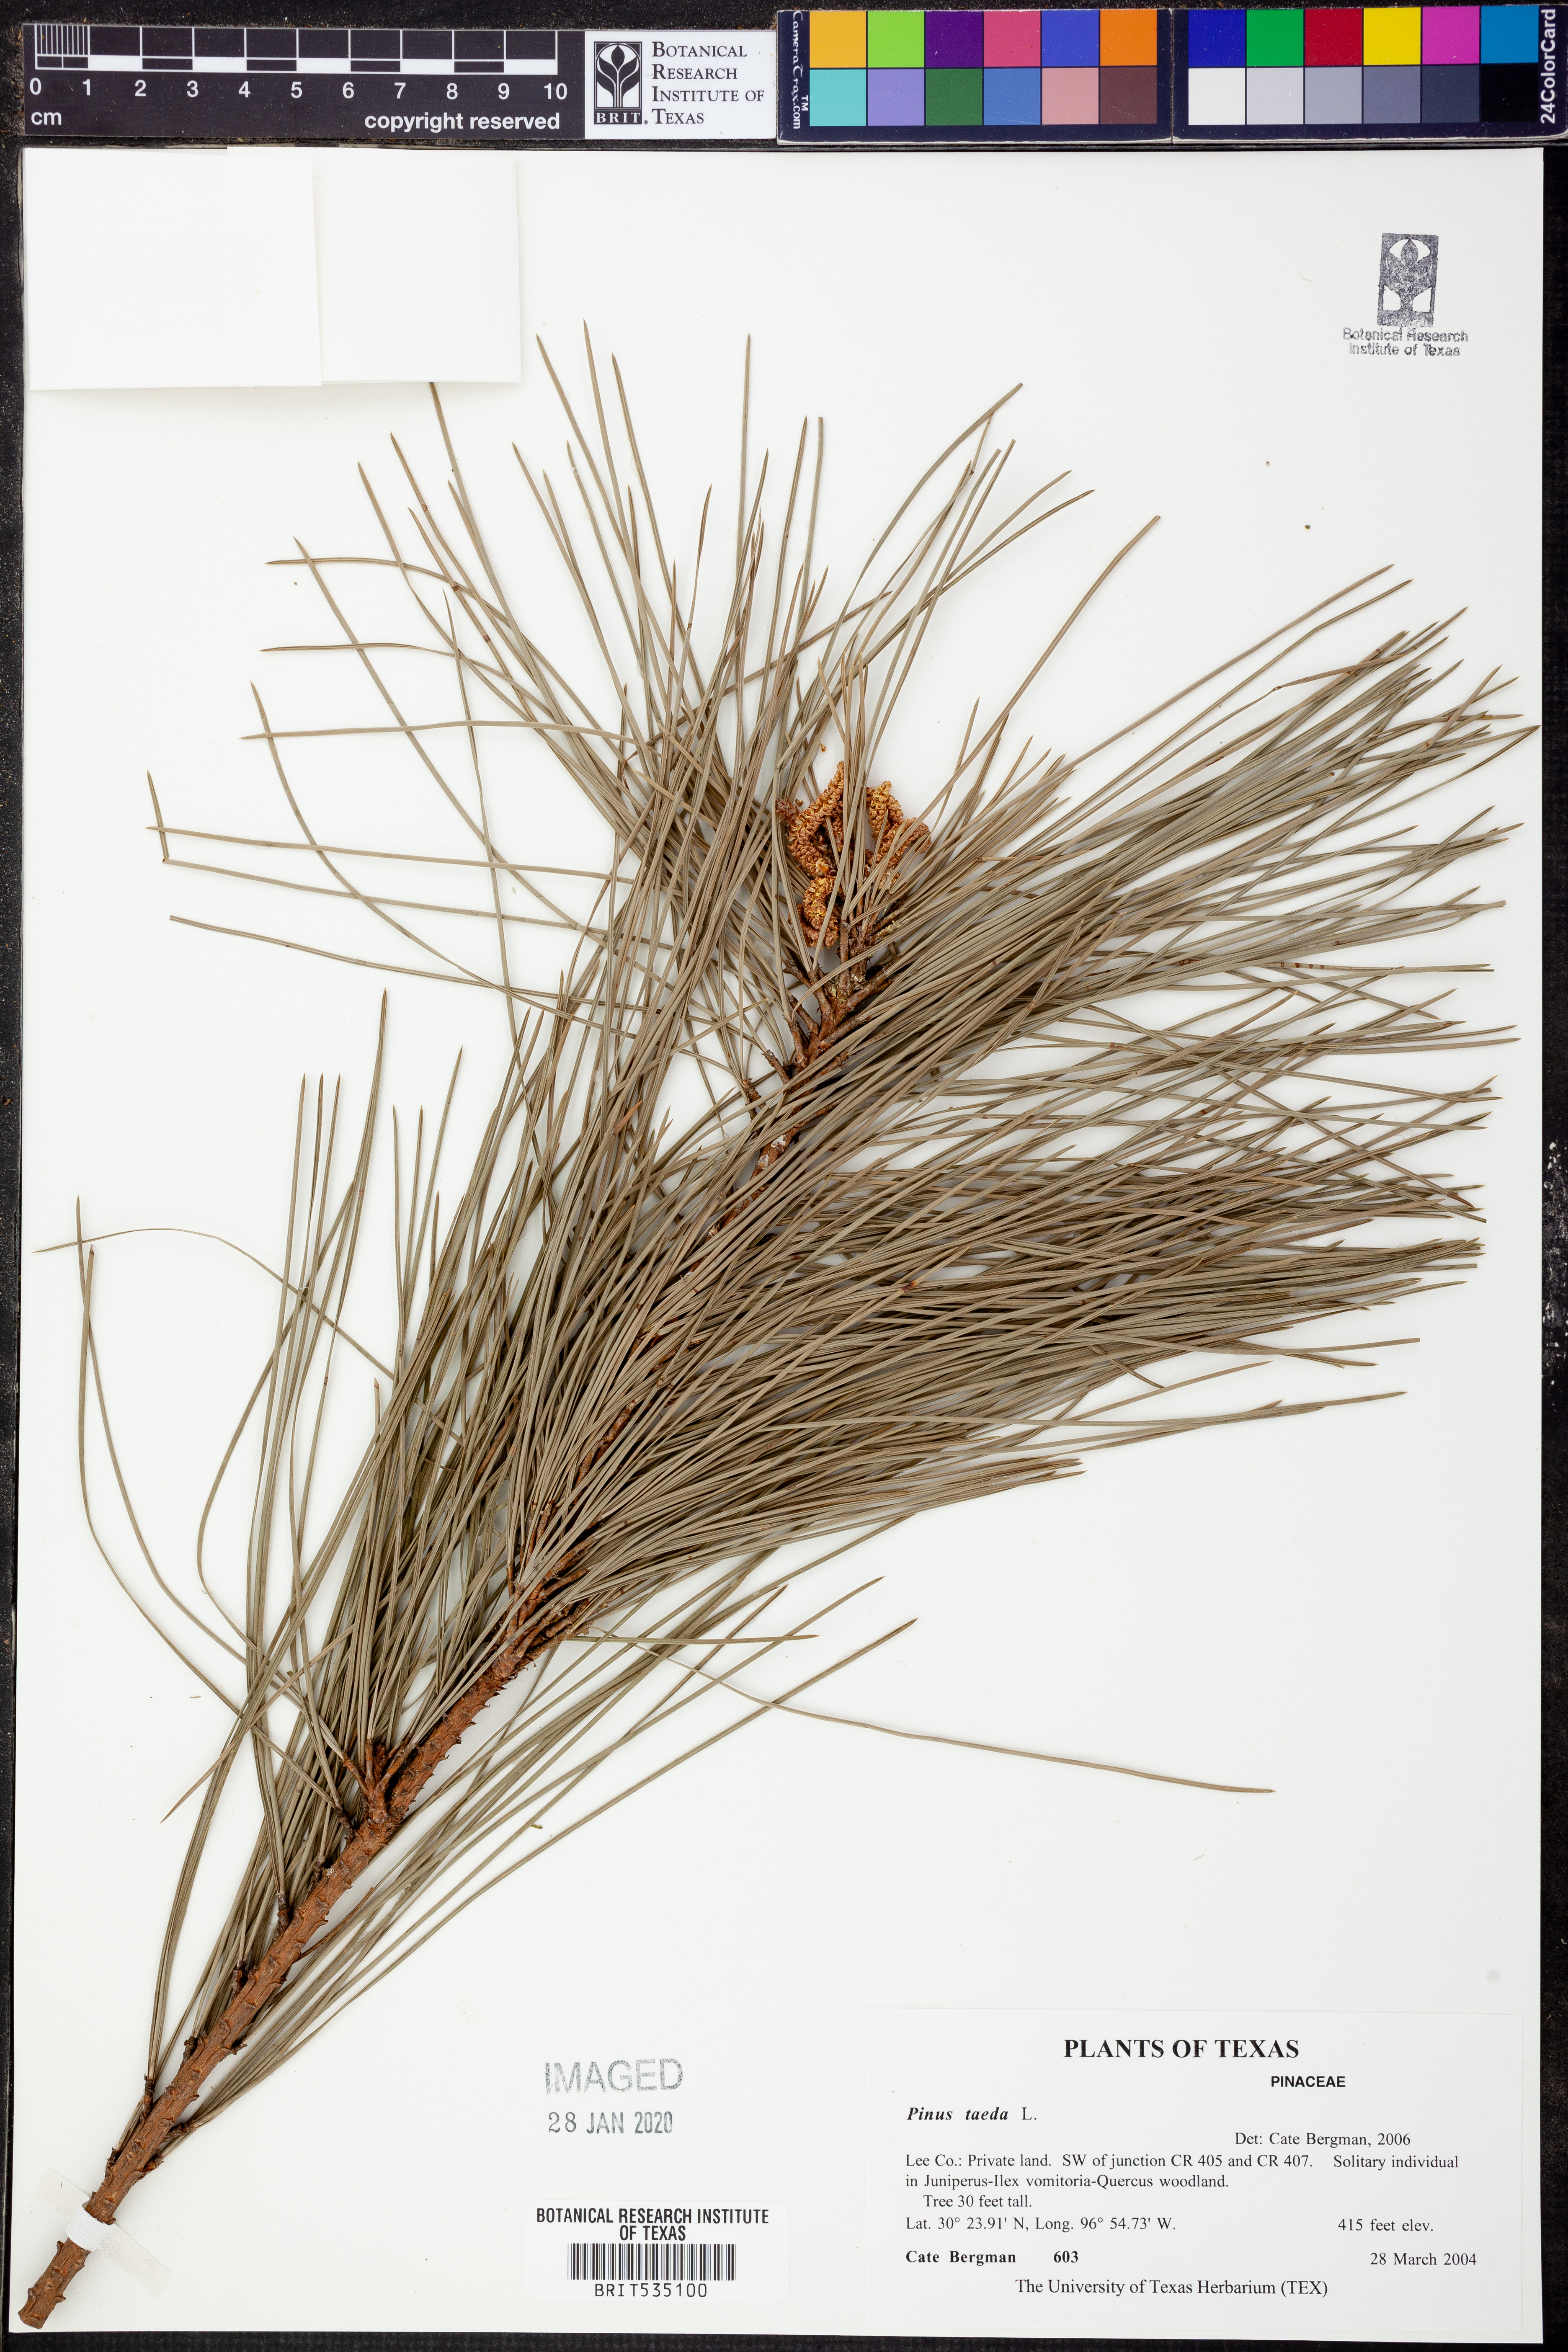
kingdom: Plantae
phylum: Tracheophyta
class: Pinopsida
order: Pinales
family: Pinaceae
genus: Pinus
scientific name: Pinus taeda
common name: Loblolly pine
